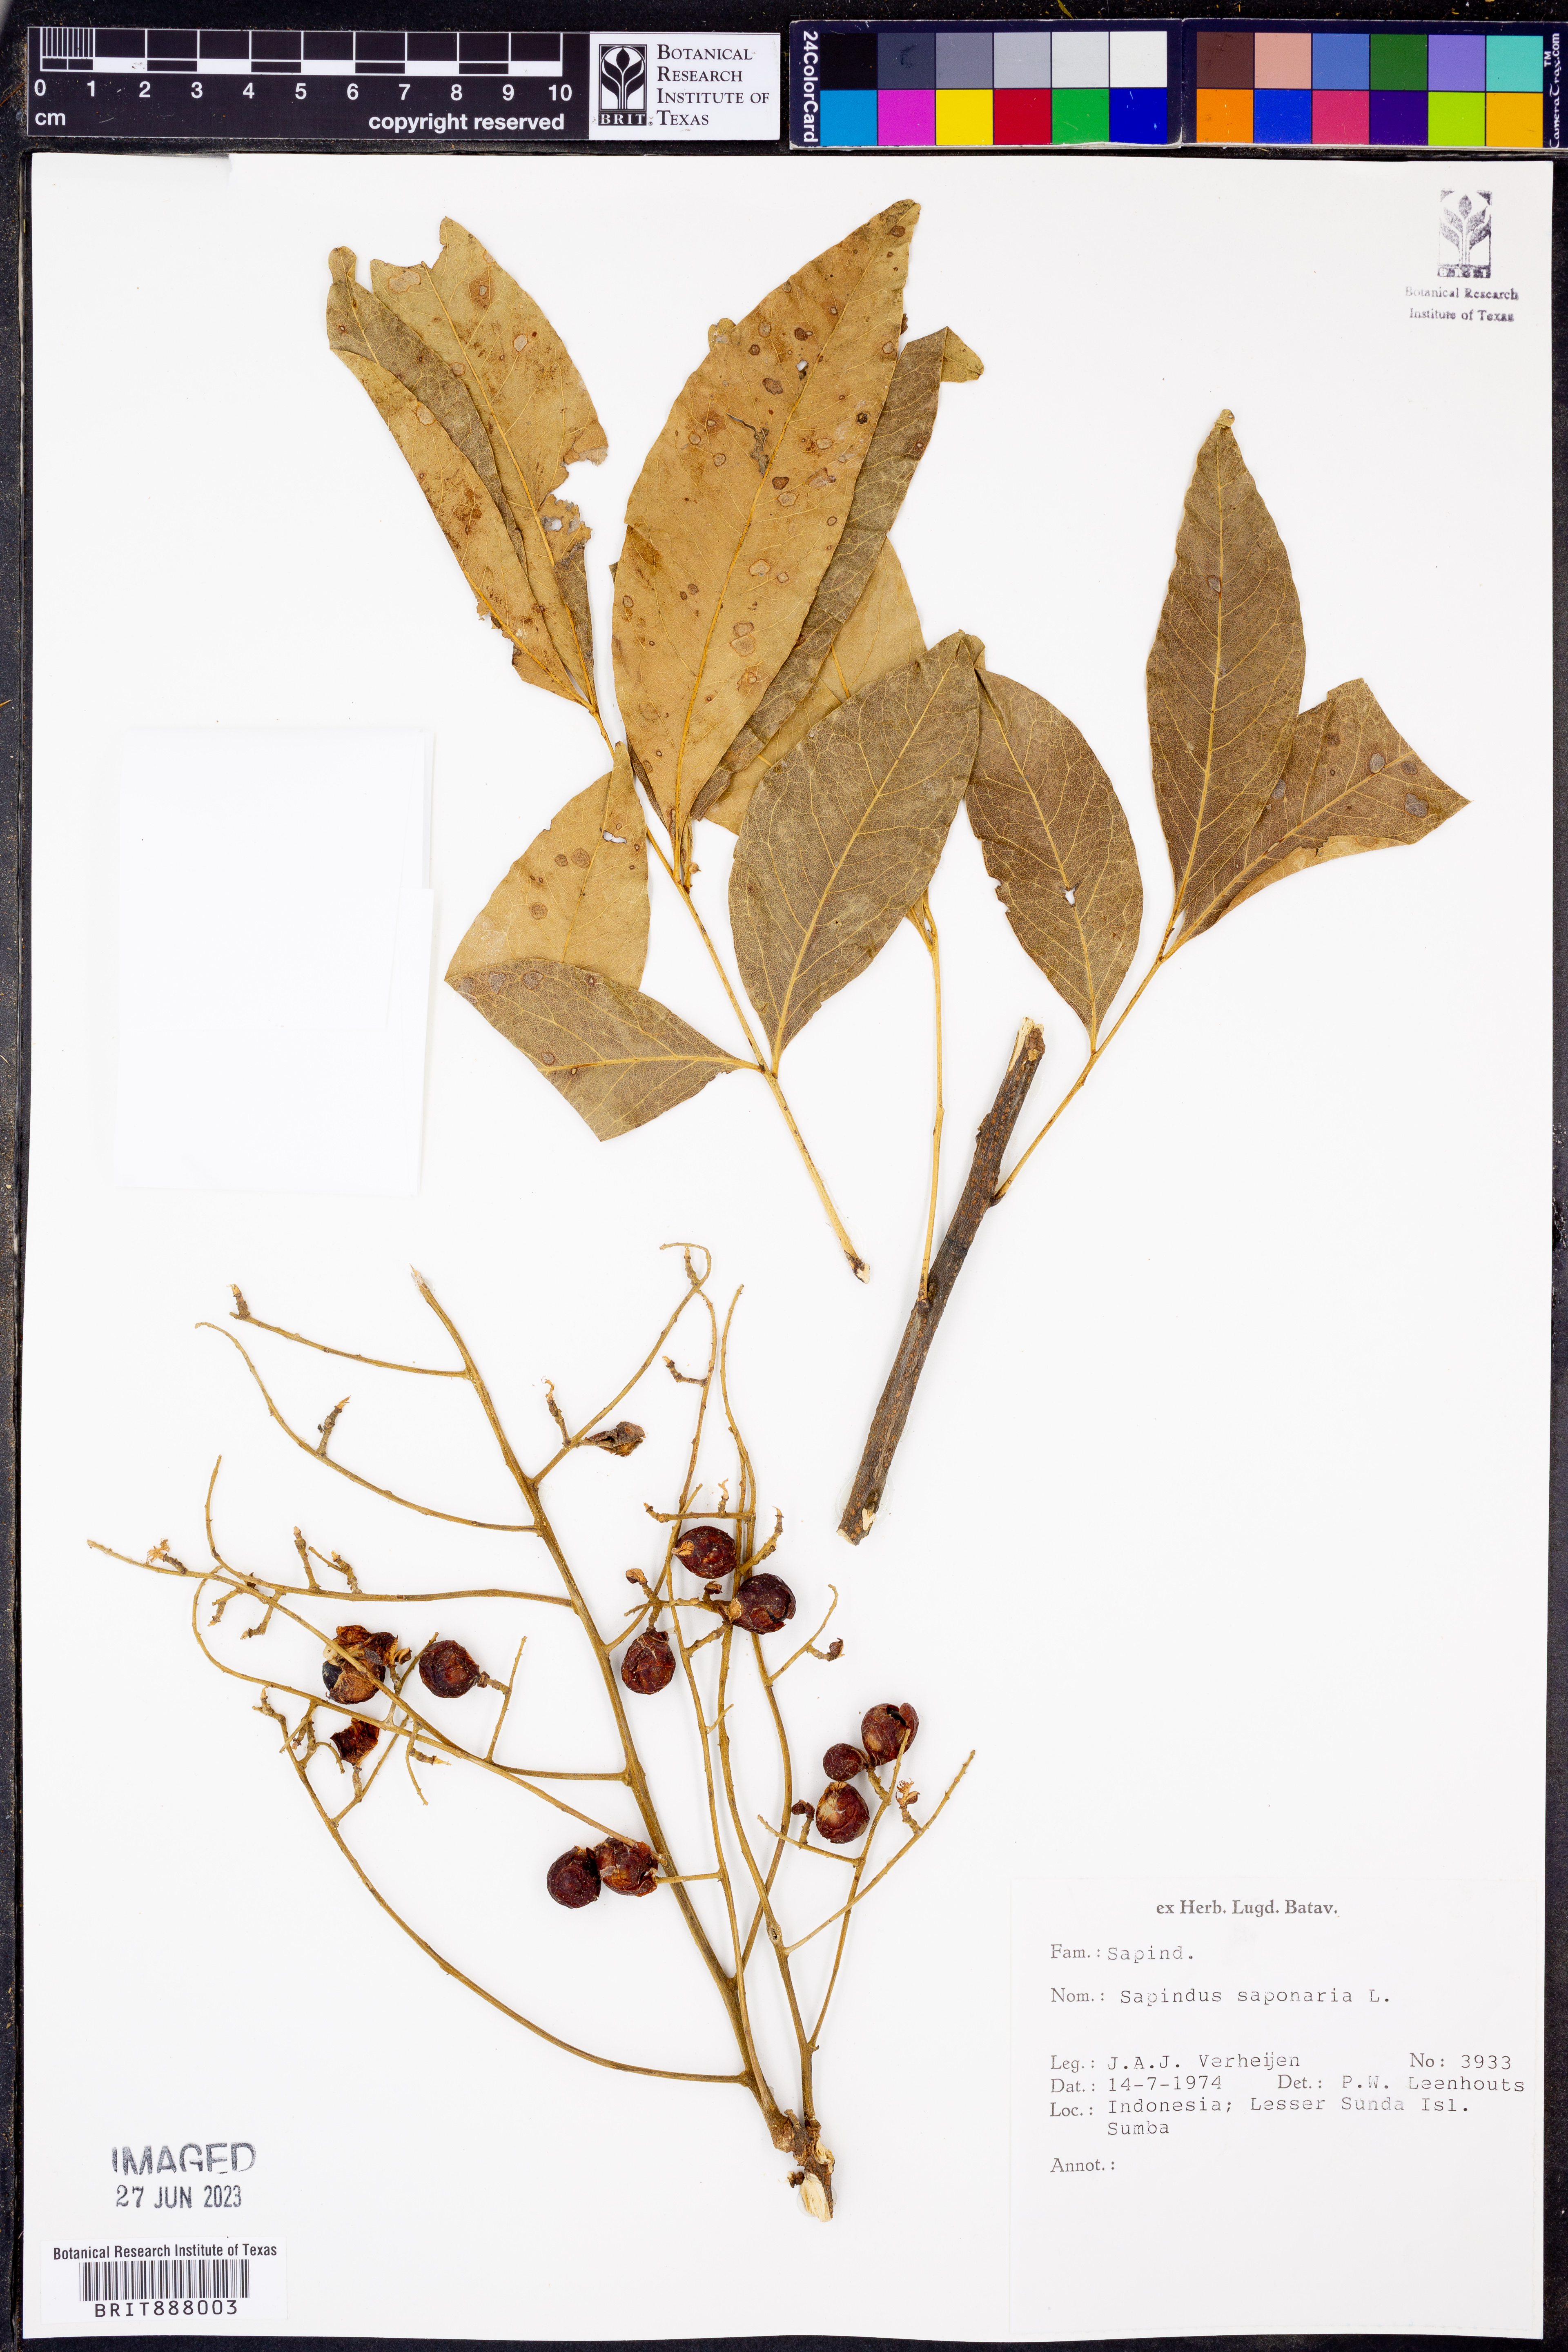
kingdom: Plantae
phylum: Tracheophyta
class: Magnoliopsida
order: Sapindales
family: Sapindaceae
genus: Sapindus
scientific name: Sapindus saponaria
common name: Wingleaf soapberry
